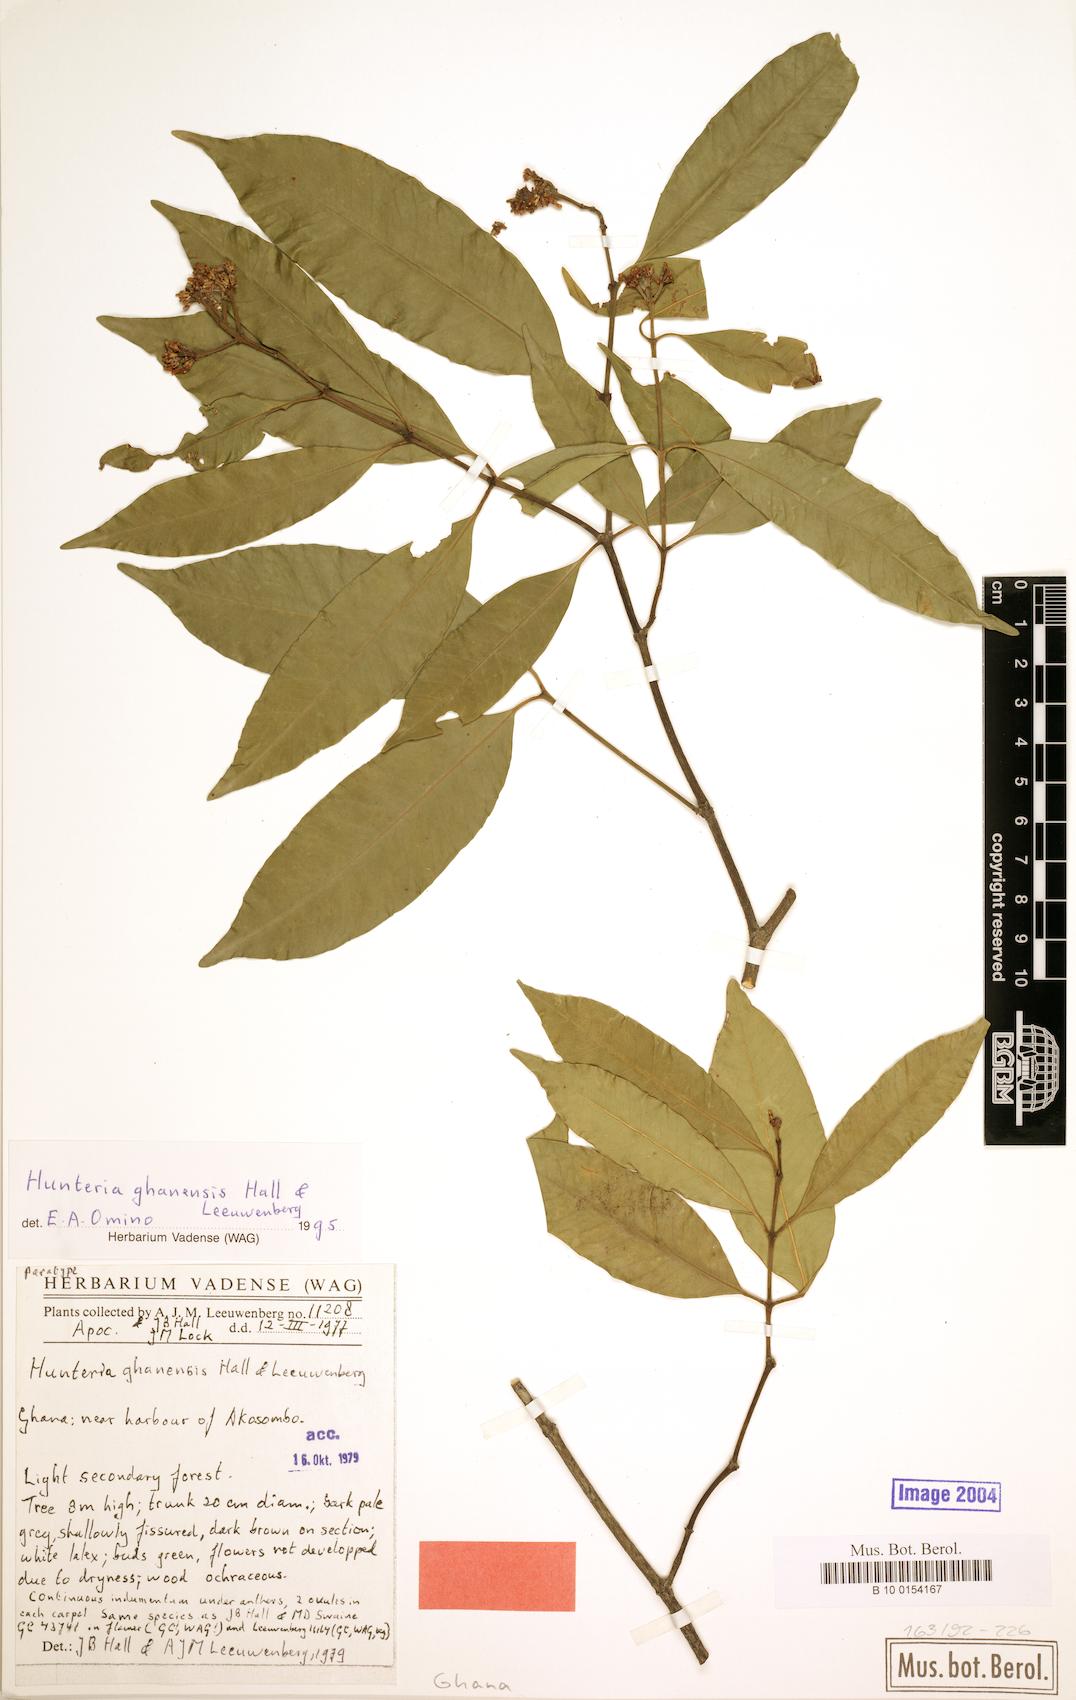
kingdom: Plantae
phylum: Tracheophyta
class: Magnoliopsida
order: Gentianales
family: Apocynaceae
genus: Hunteria
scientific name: Hunteria ghanensis
